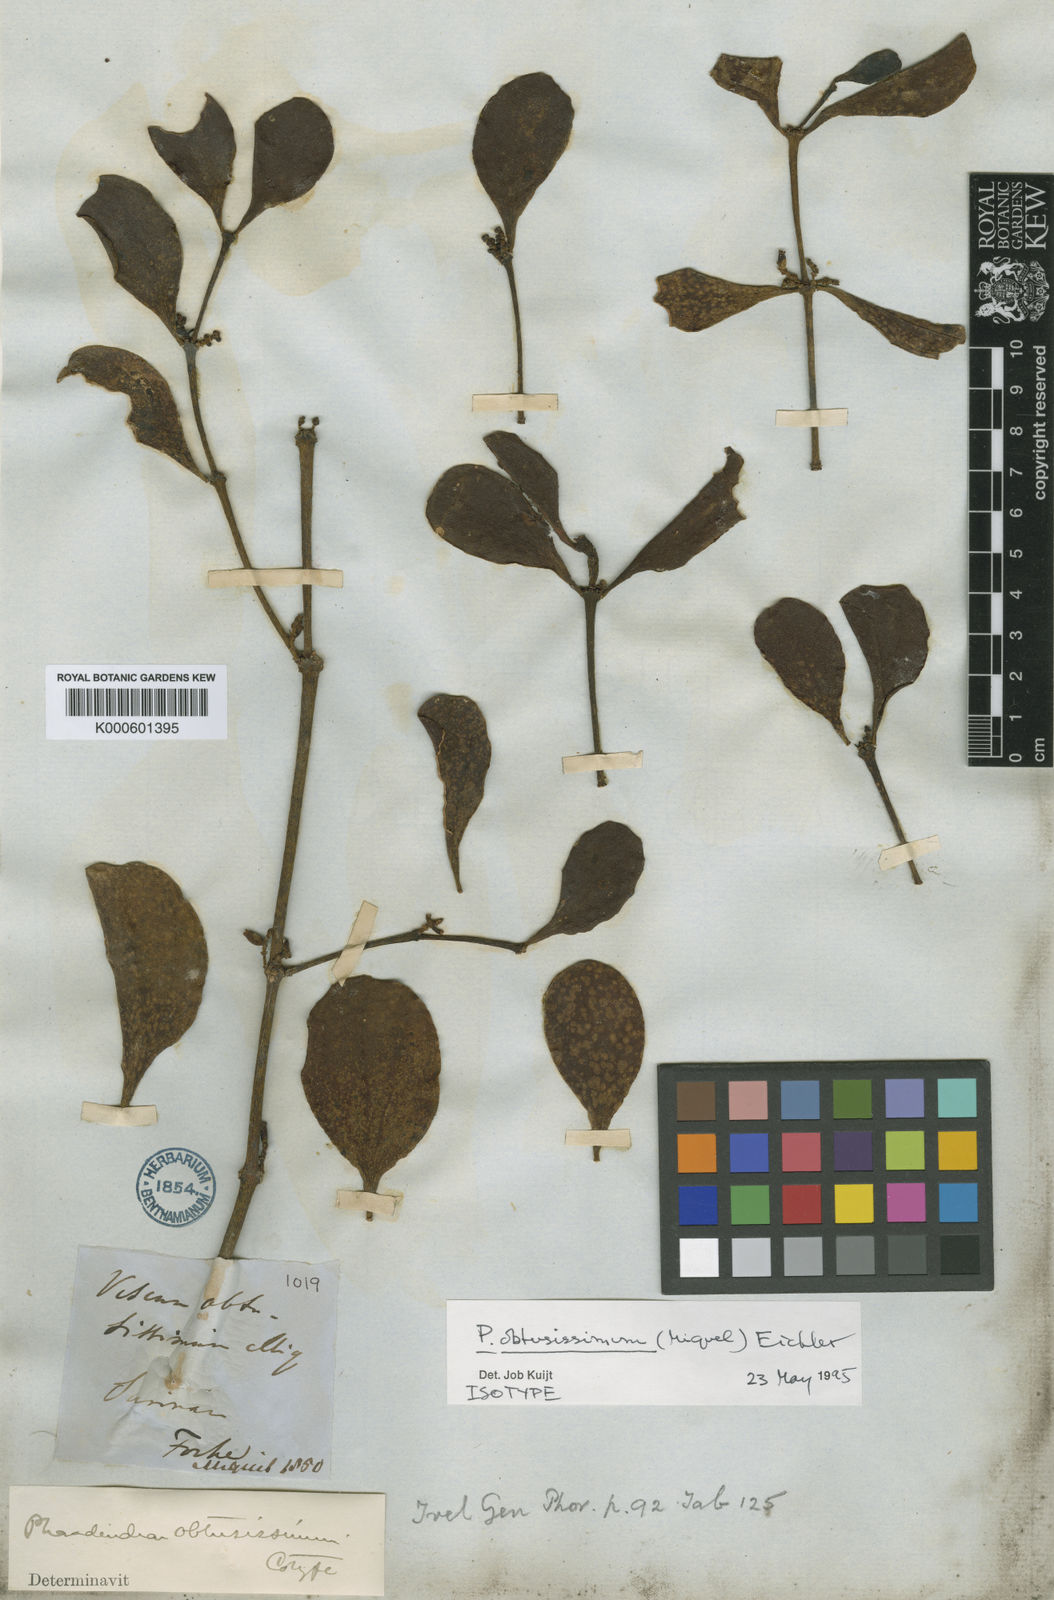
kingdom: Plantae
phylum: Tracheophyta
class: Magnoliopsida
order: Santalales
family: Viscaceae
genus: Phoradendron
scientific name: Phoradendron obtusissimum
